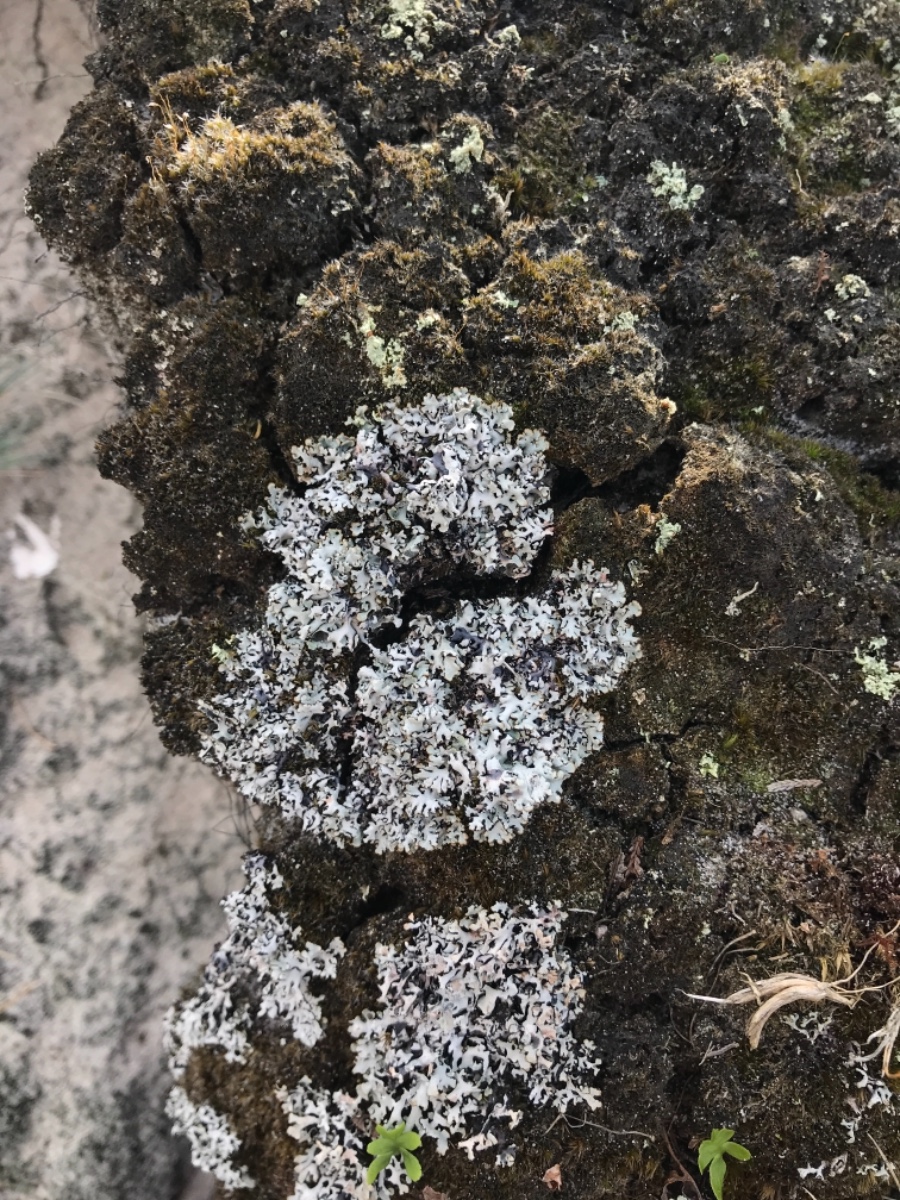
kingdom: Fungi
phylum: Ascomycota
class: Lecanoromycetes
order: Lecanorales
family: Parmeliaceae
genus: Hypogymnia
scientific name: Hypogymnia physodes
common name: almindelig kvistlav
